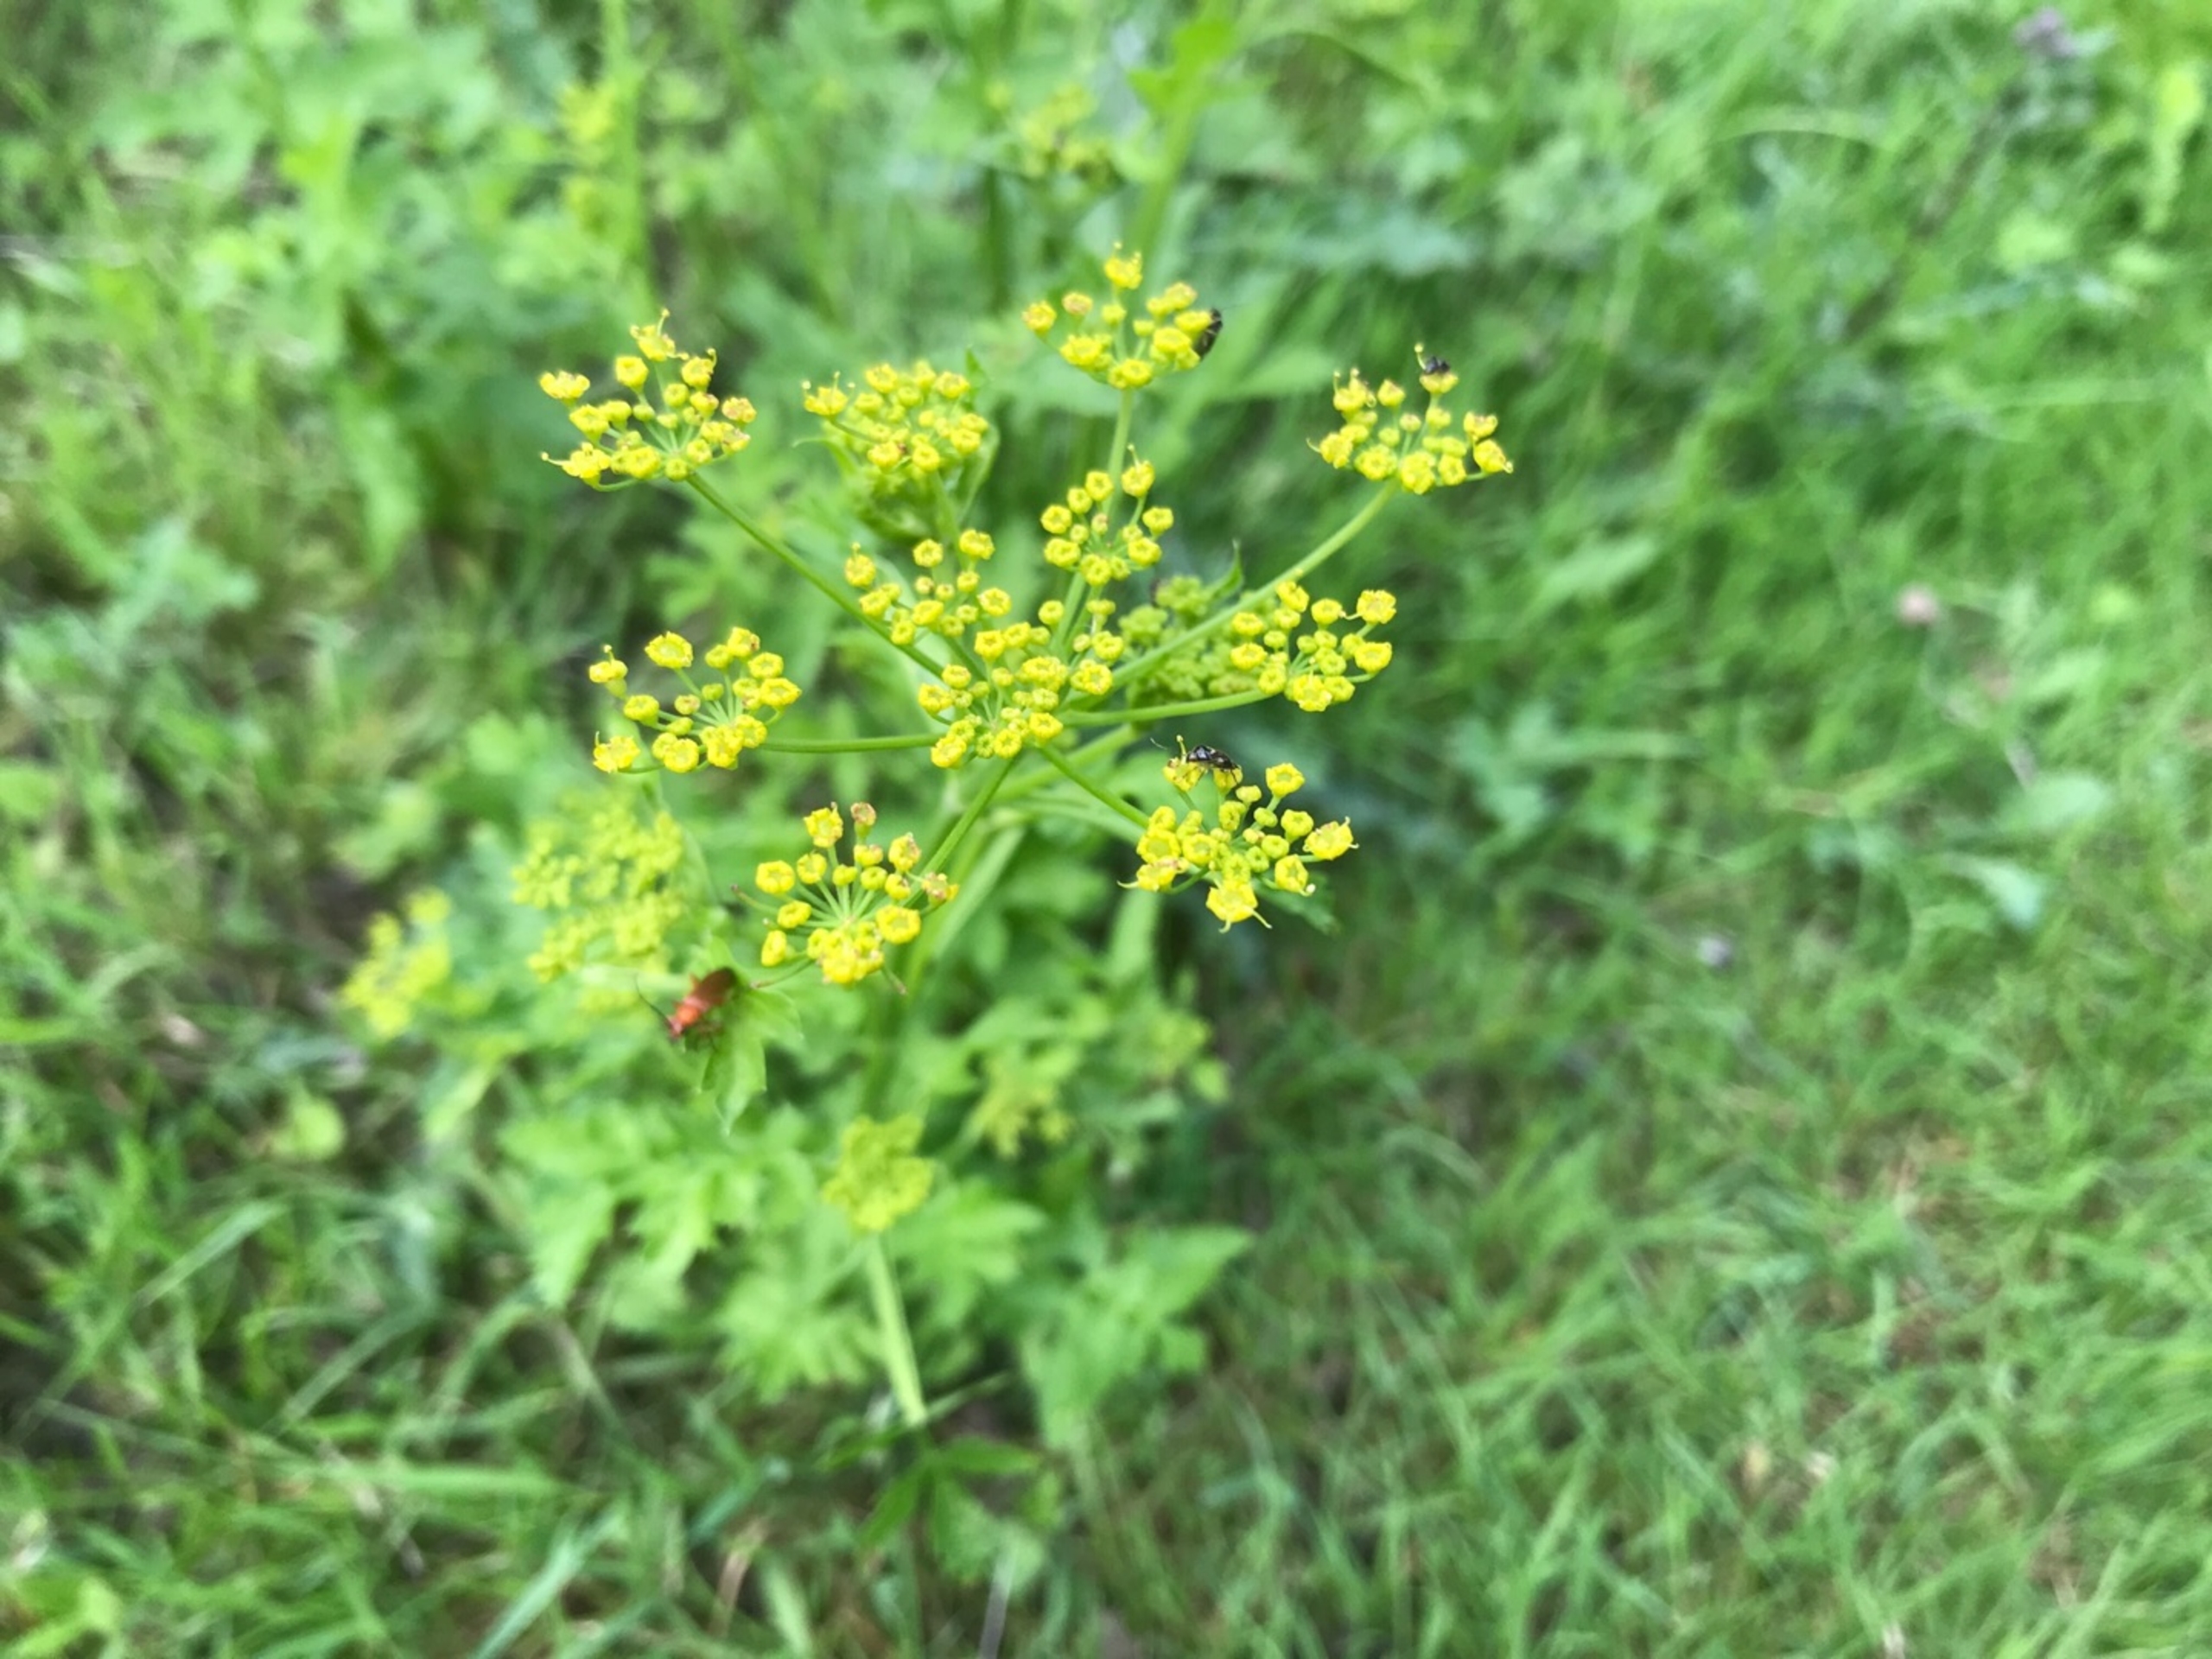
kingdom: Plantae
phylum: Tracheophyta
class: Magnoliopsida
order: Apiales
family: Apiaceae
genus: Pastinaca
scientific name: Pastinaca sativa
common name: Pastinak
